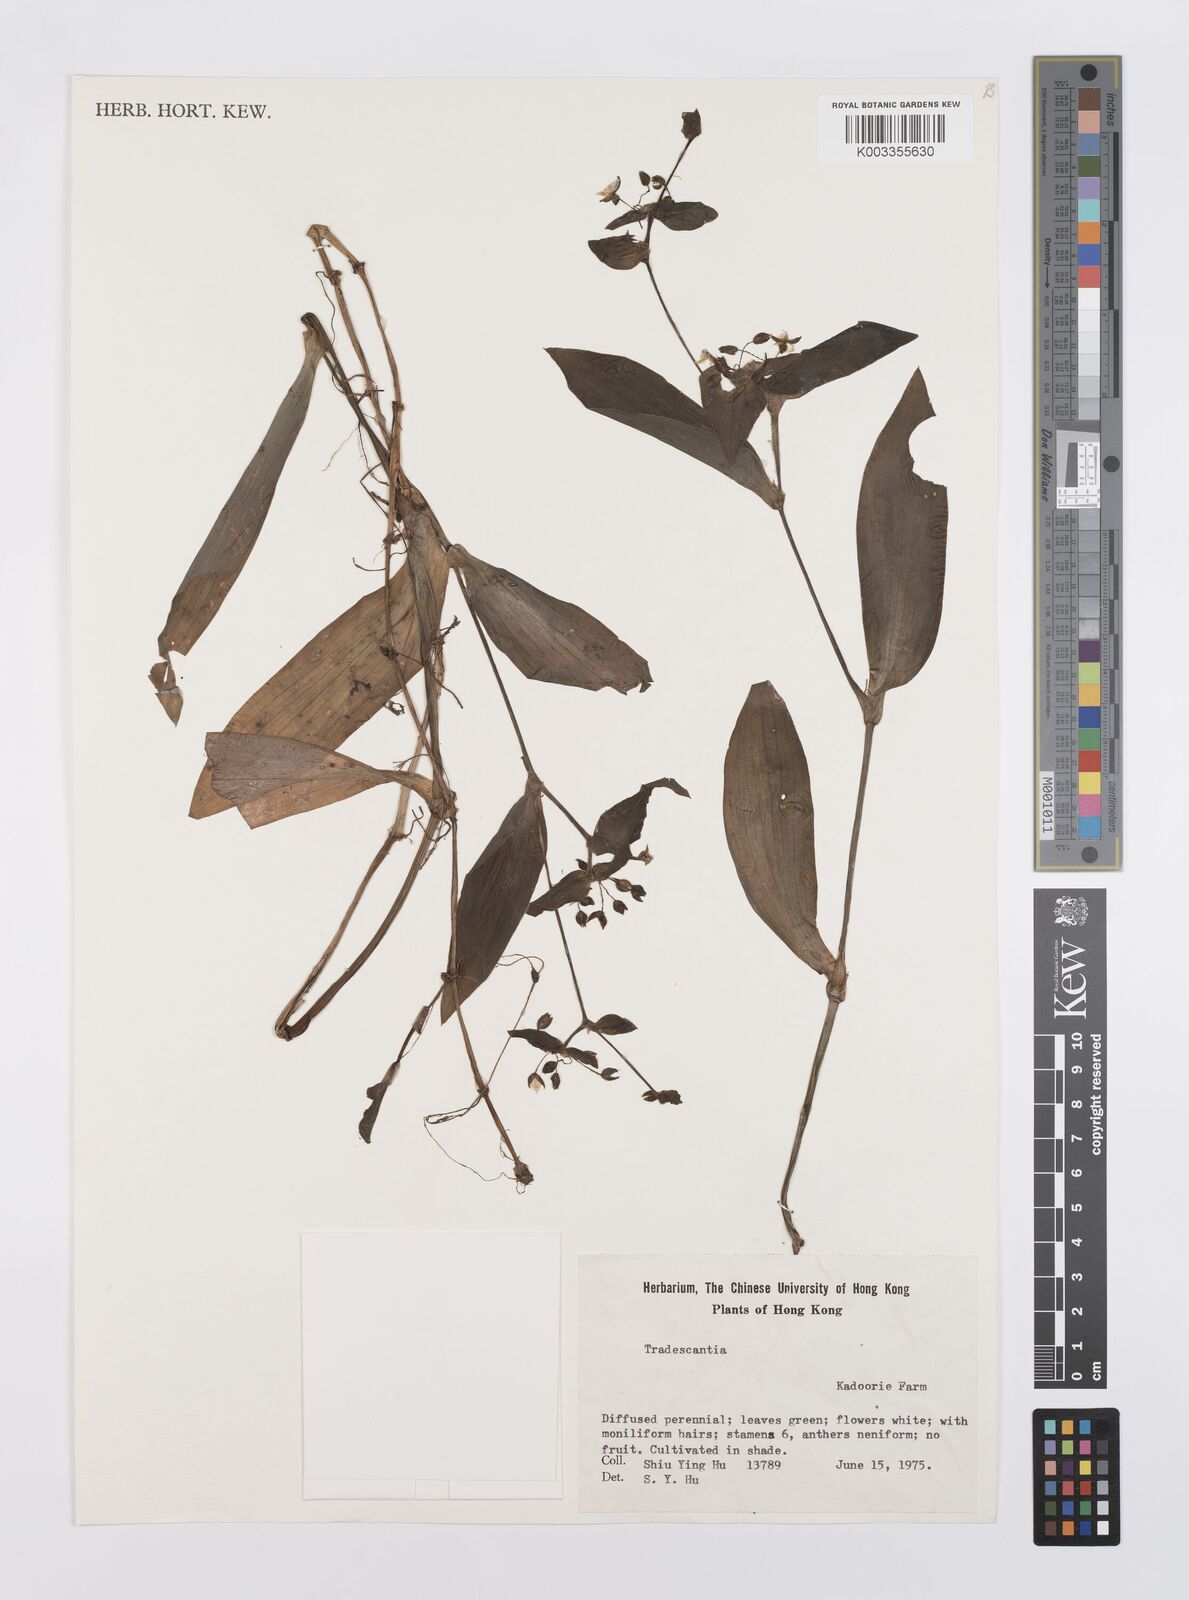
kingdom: Plantae
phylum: Tracheophyta
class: Liliopsida
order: Commelinales
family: Commelinaceae
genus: Tradescantia
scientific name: Tradescantia crassula
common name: Succulent spiderwort
